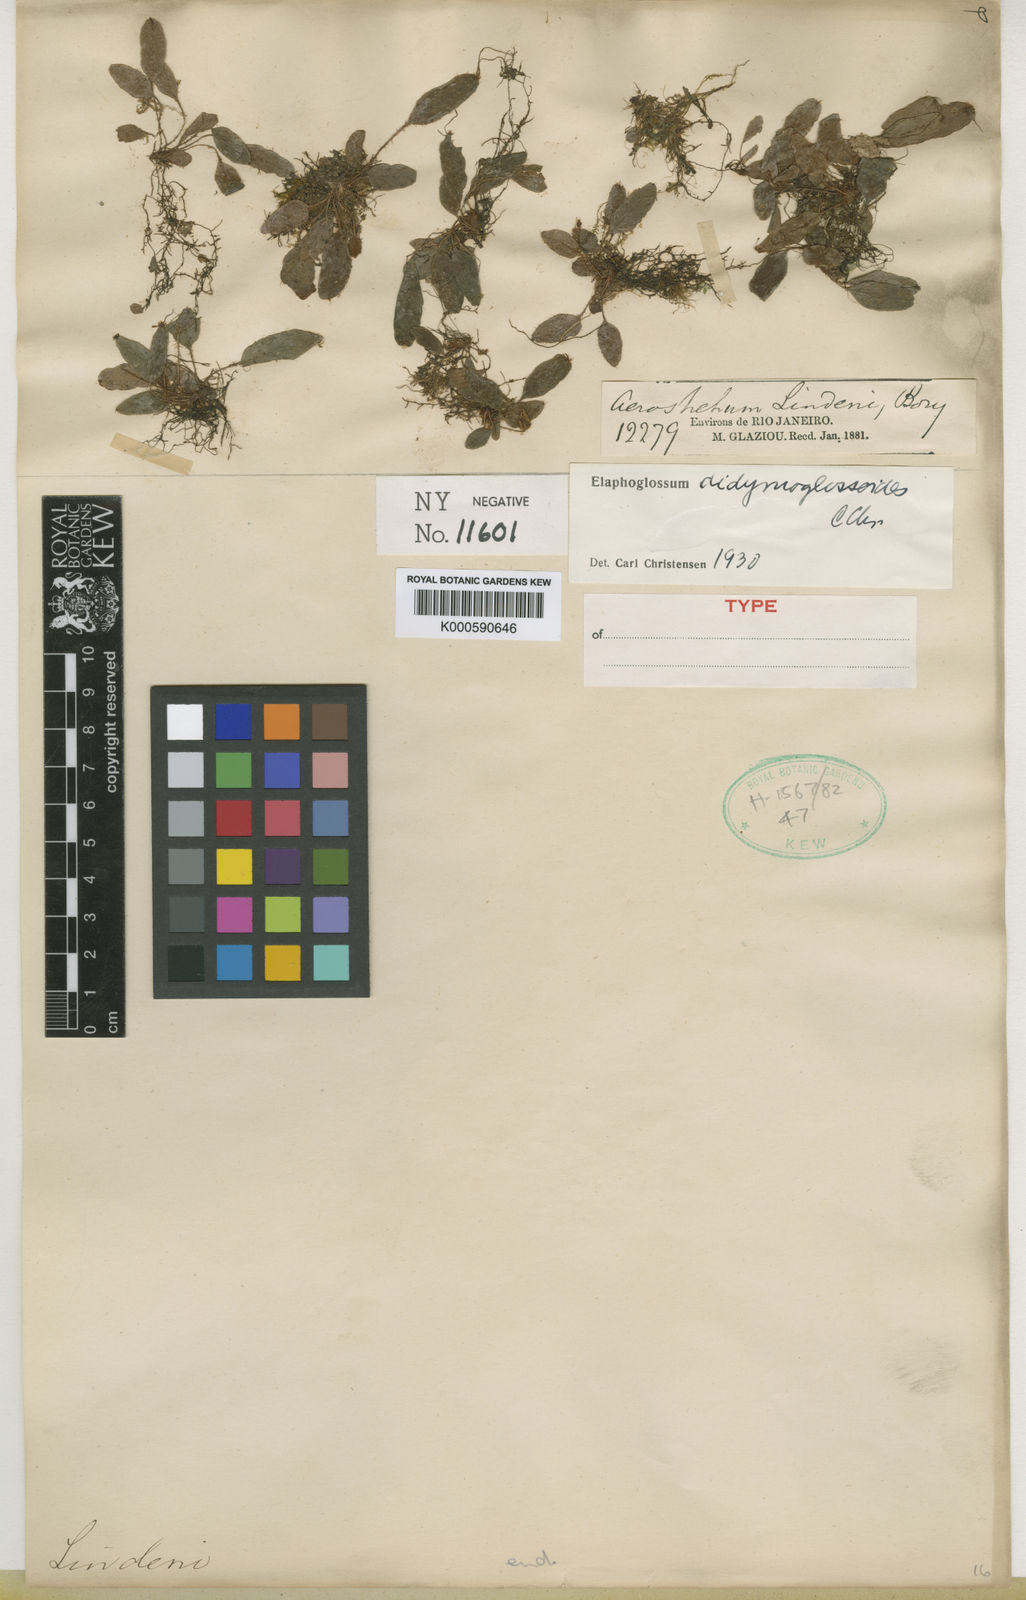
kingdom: Plantae
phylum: Tracheophyta
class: Polypodiopsida
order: Polypodiales
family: Dryopteridaceae
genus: Elaphoglossum
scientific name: Elaphoglossum didymoglossoides
